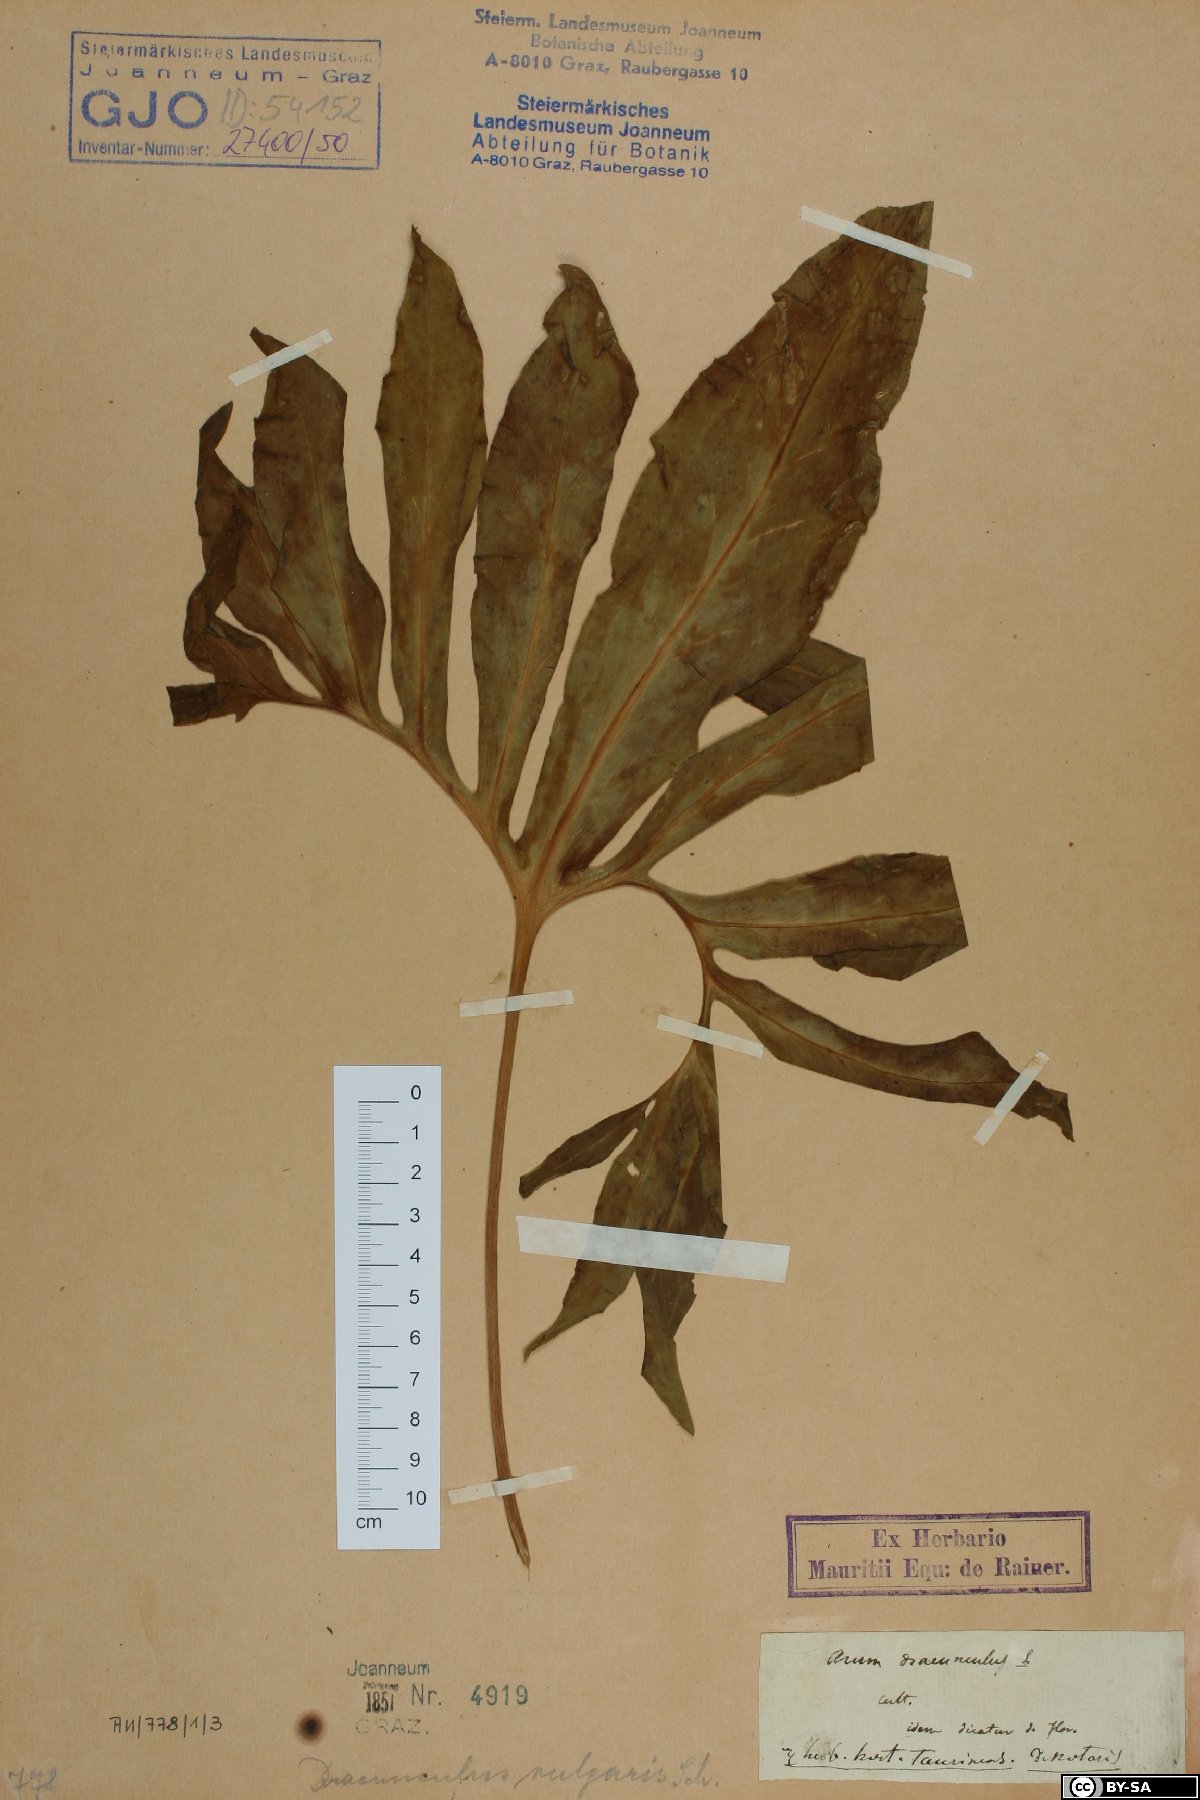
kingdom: Plantae
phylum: Tracheophyta
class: Liliopsida
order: Alismatales
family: Araceae
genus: Dracunculus
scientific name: Dracunculus vulgaris
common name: Dragon arum
